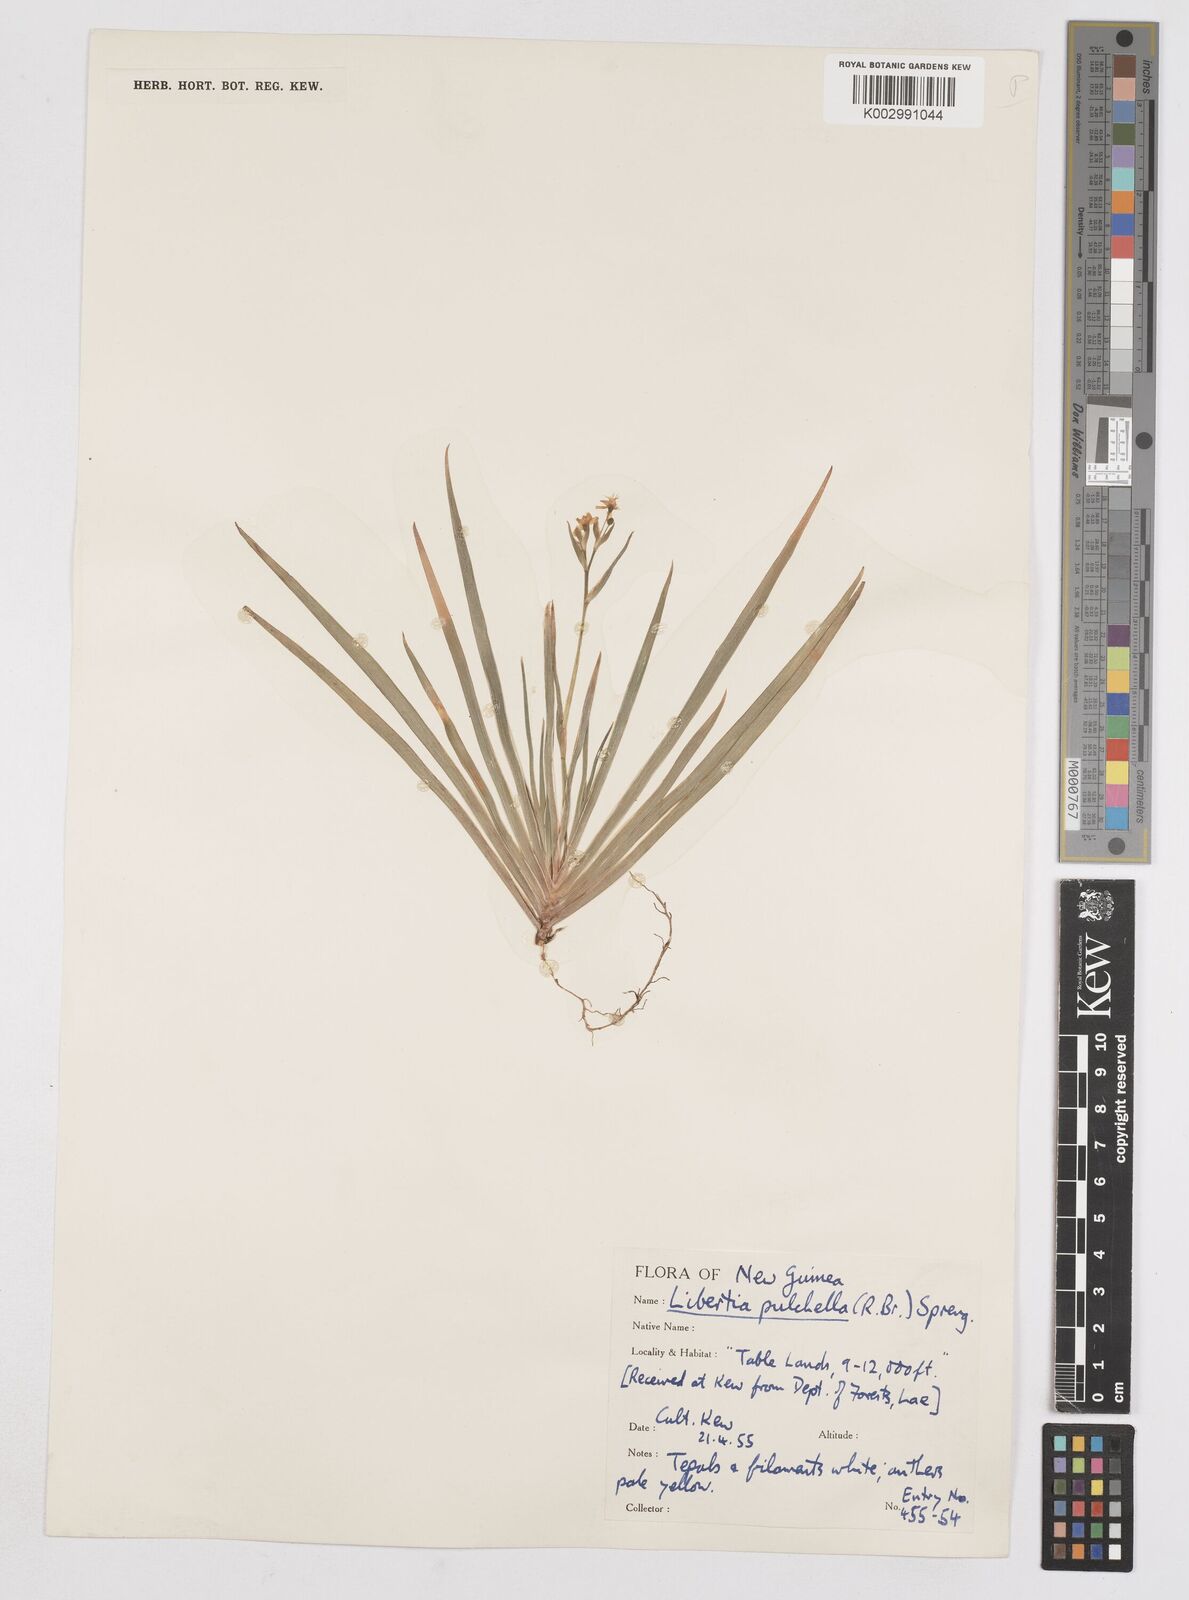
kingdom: Plantae
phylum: Tracheophyta
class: Liliopsida
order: Asparagales
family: Iridaceae
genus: Libertia
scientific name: Libertia pulchella
